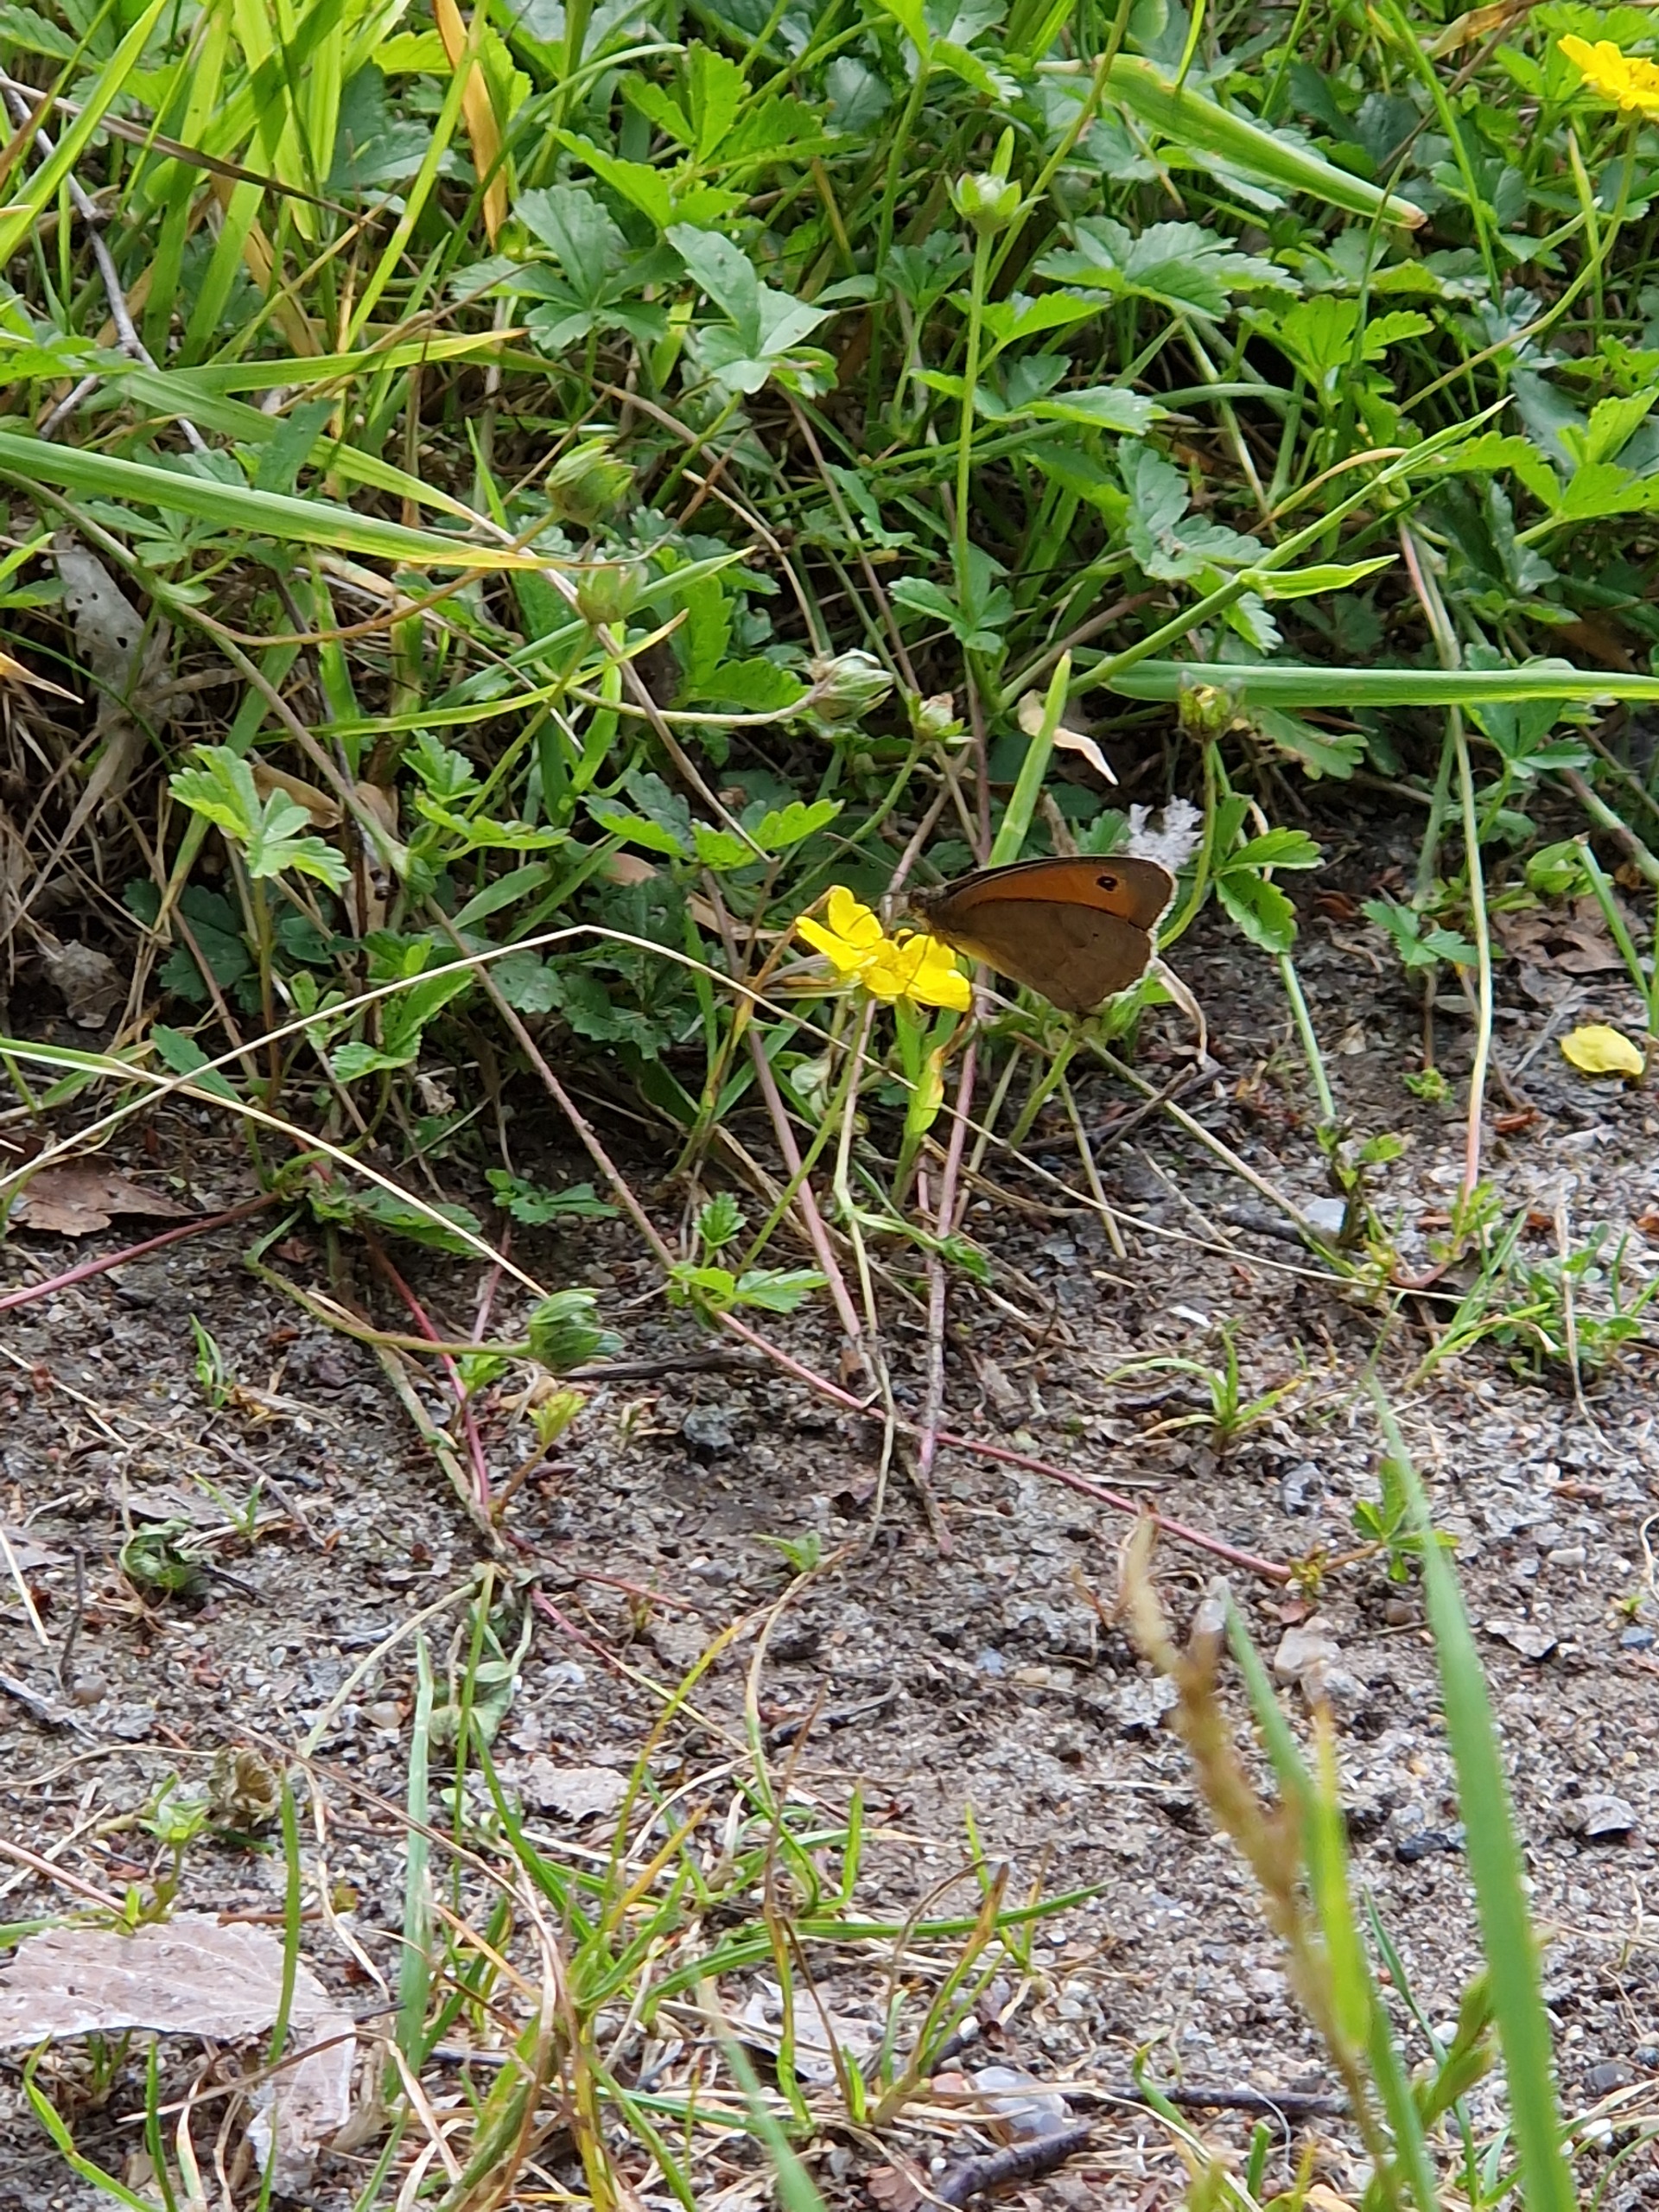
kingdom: Animalia
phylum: Arthropoda
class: Insecta
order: Lepidoptera
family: Nymphalidae
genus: Maniola
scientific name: Maniola jurtina
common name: Græsrandøje
